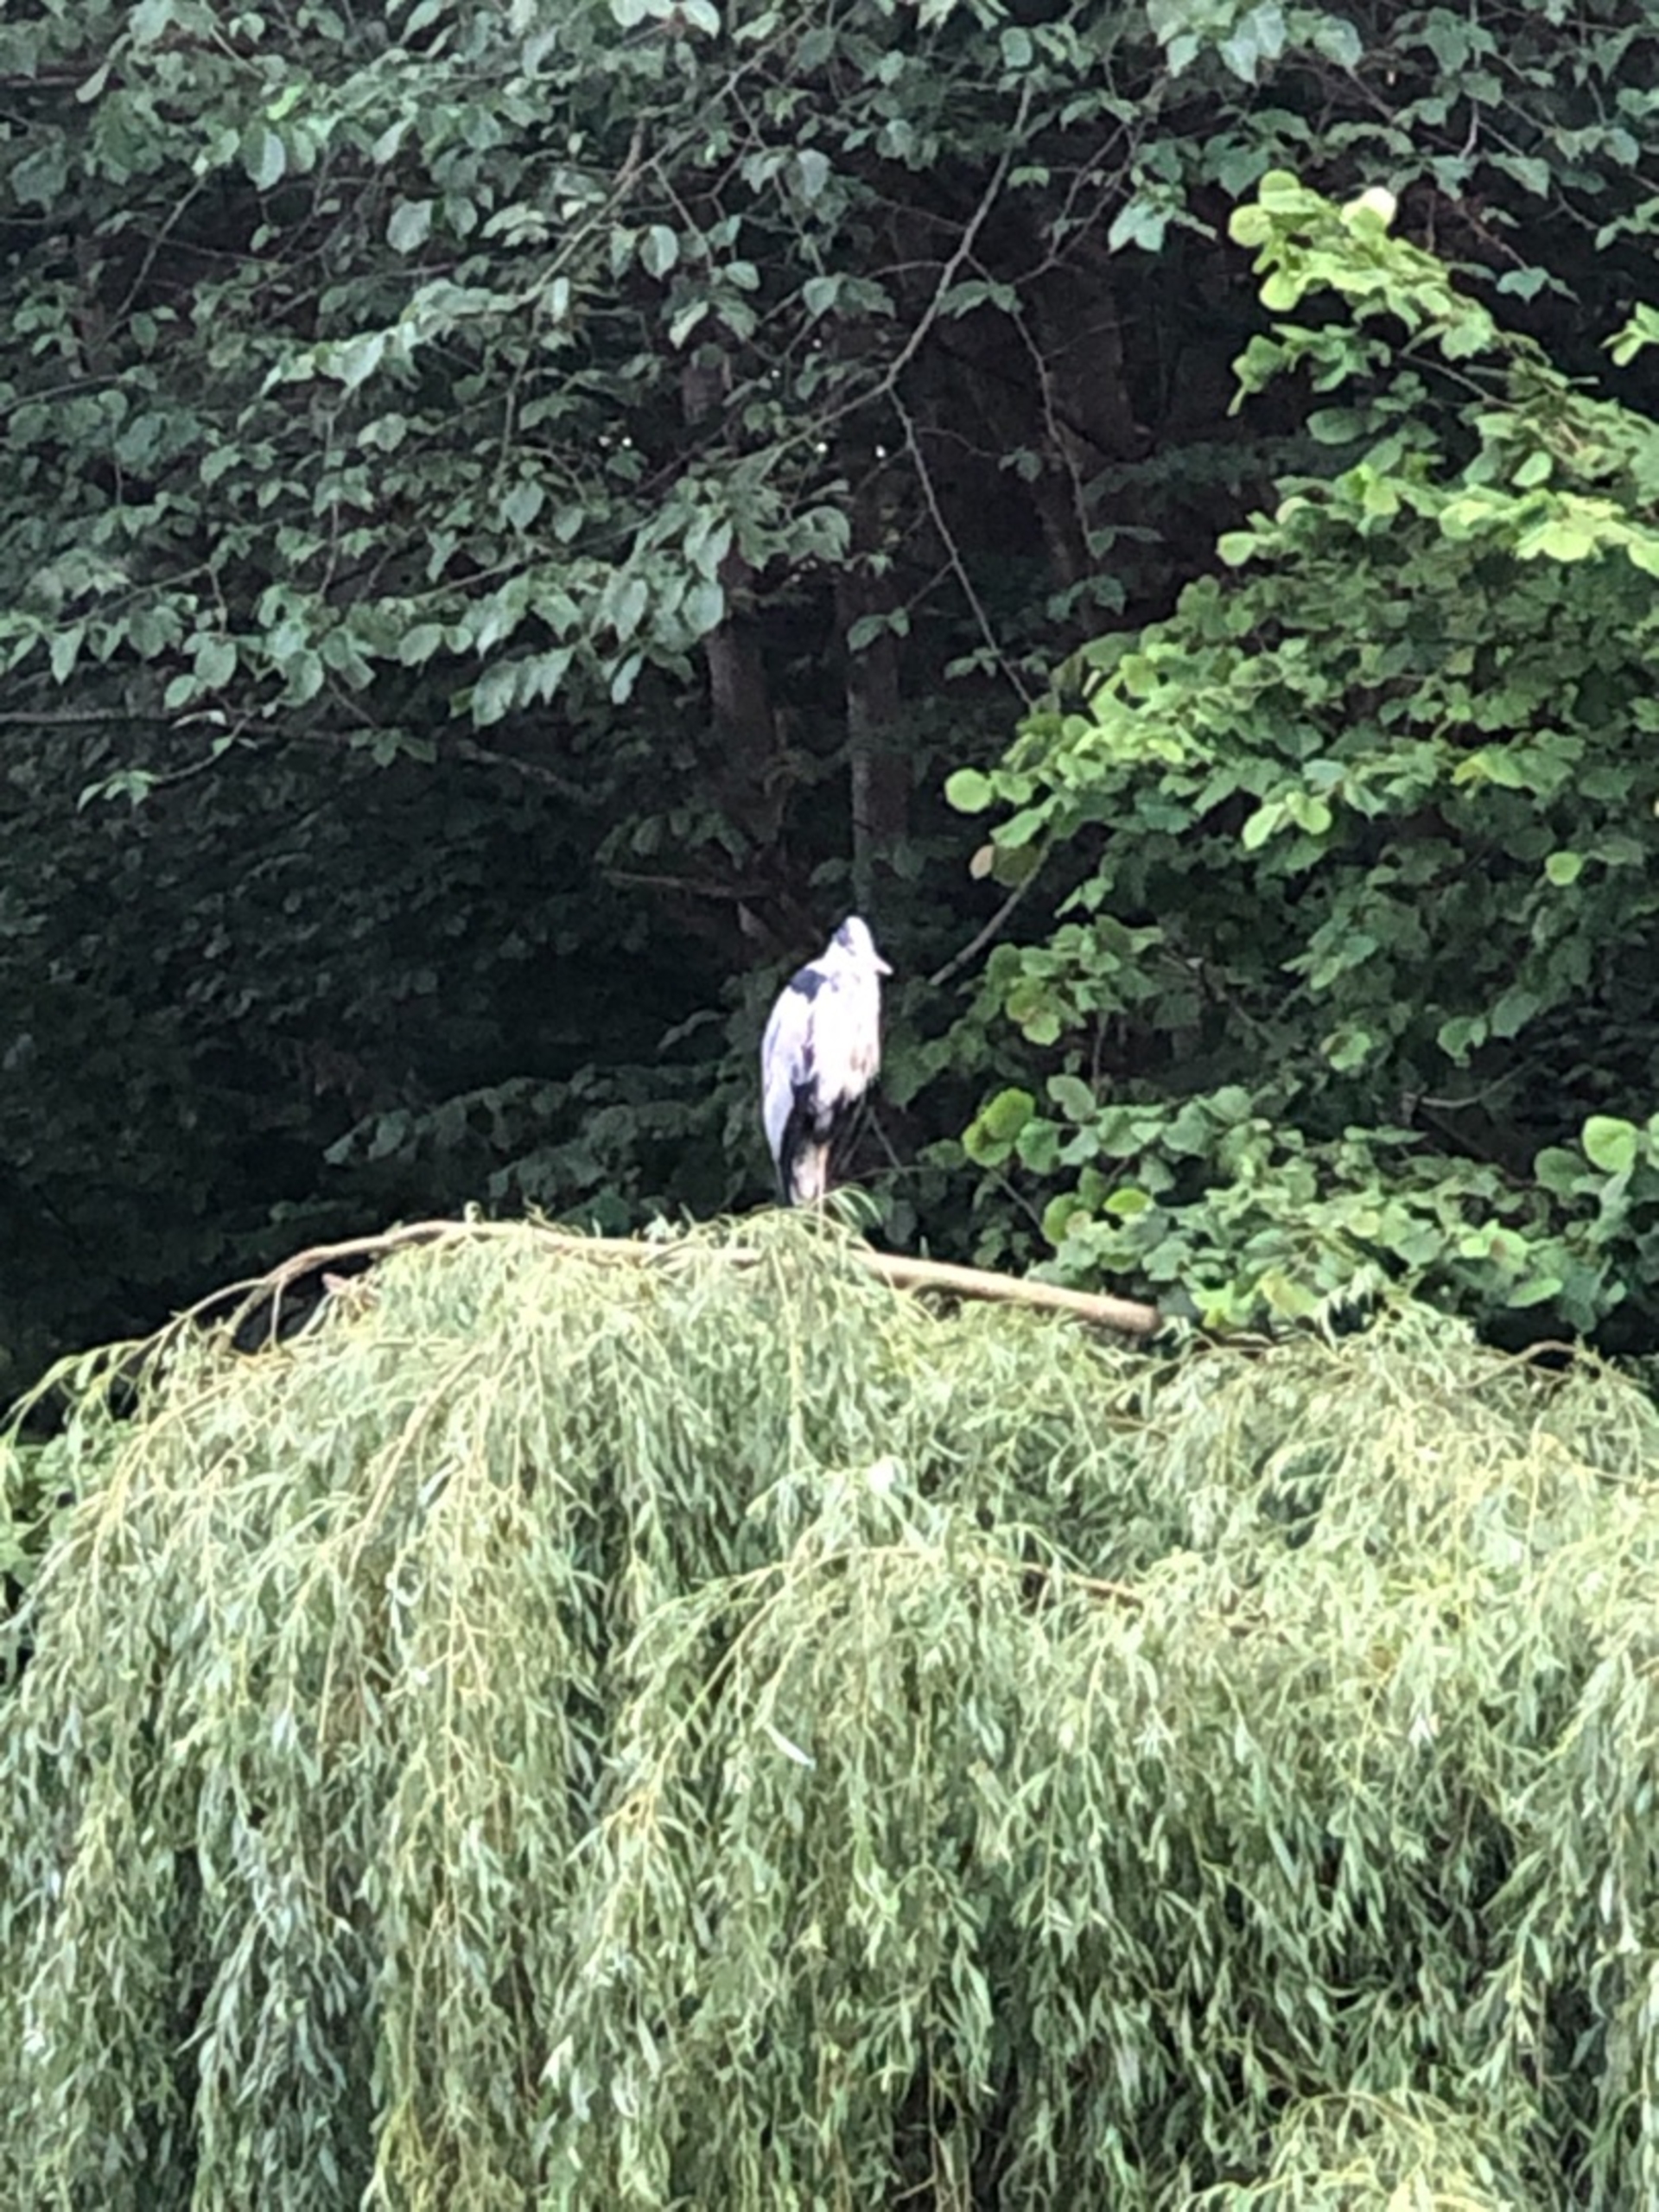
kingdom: Animalia
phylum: Chordata
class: Aves
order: Pelecaniformes
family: Ardeidae
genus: Ardea
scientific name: Ardea cinerea
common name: Fiskehejre
